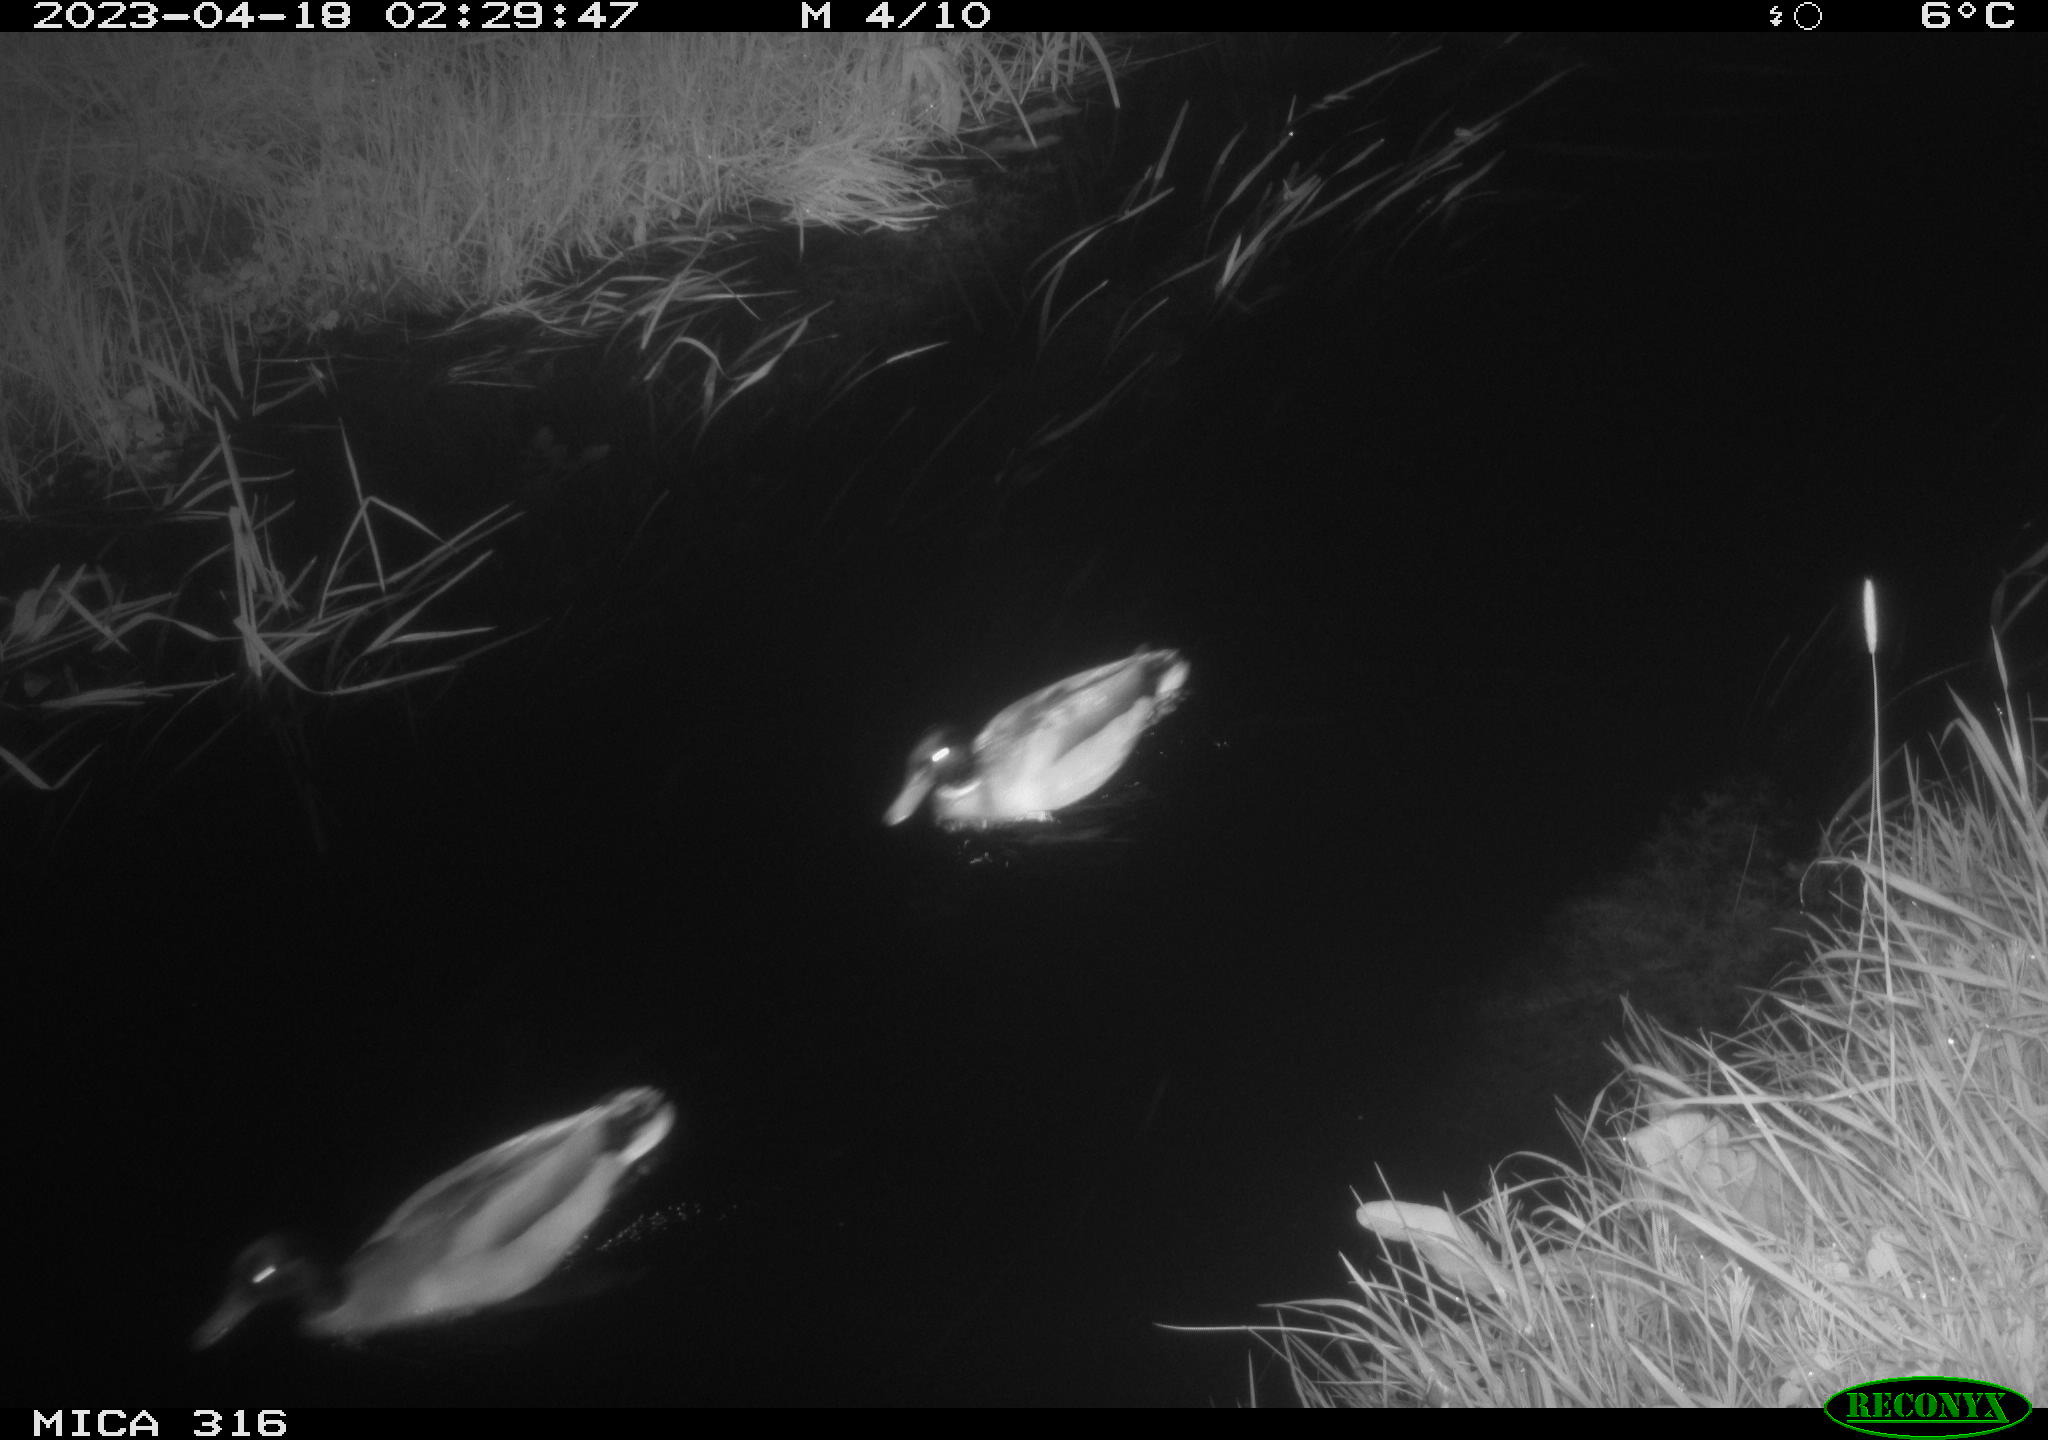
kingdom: Animalia
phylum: Chordata
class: Aves
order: Anseriformes
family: Anatidae
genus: Anas
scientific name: Anas
